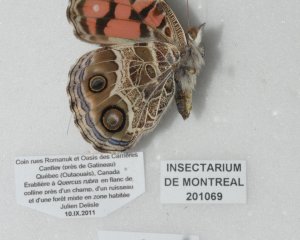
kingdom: Animalia
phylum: Arthropoda
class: Insecta
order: Lepidoptera
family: Nymphalidae
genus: Vanessa
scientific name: Vanessa virginiensis
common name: American Lady
